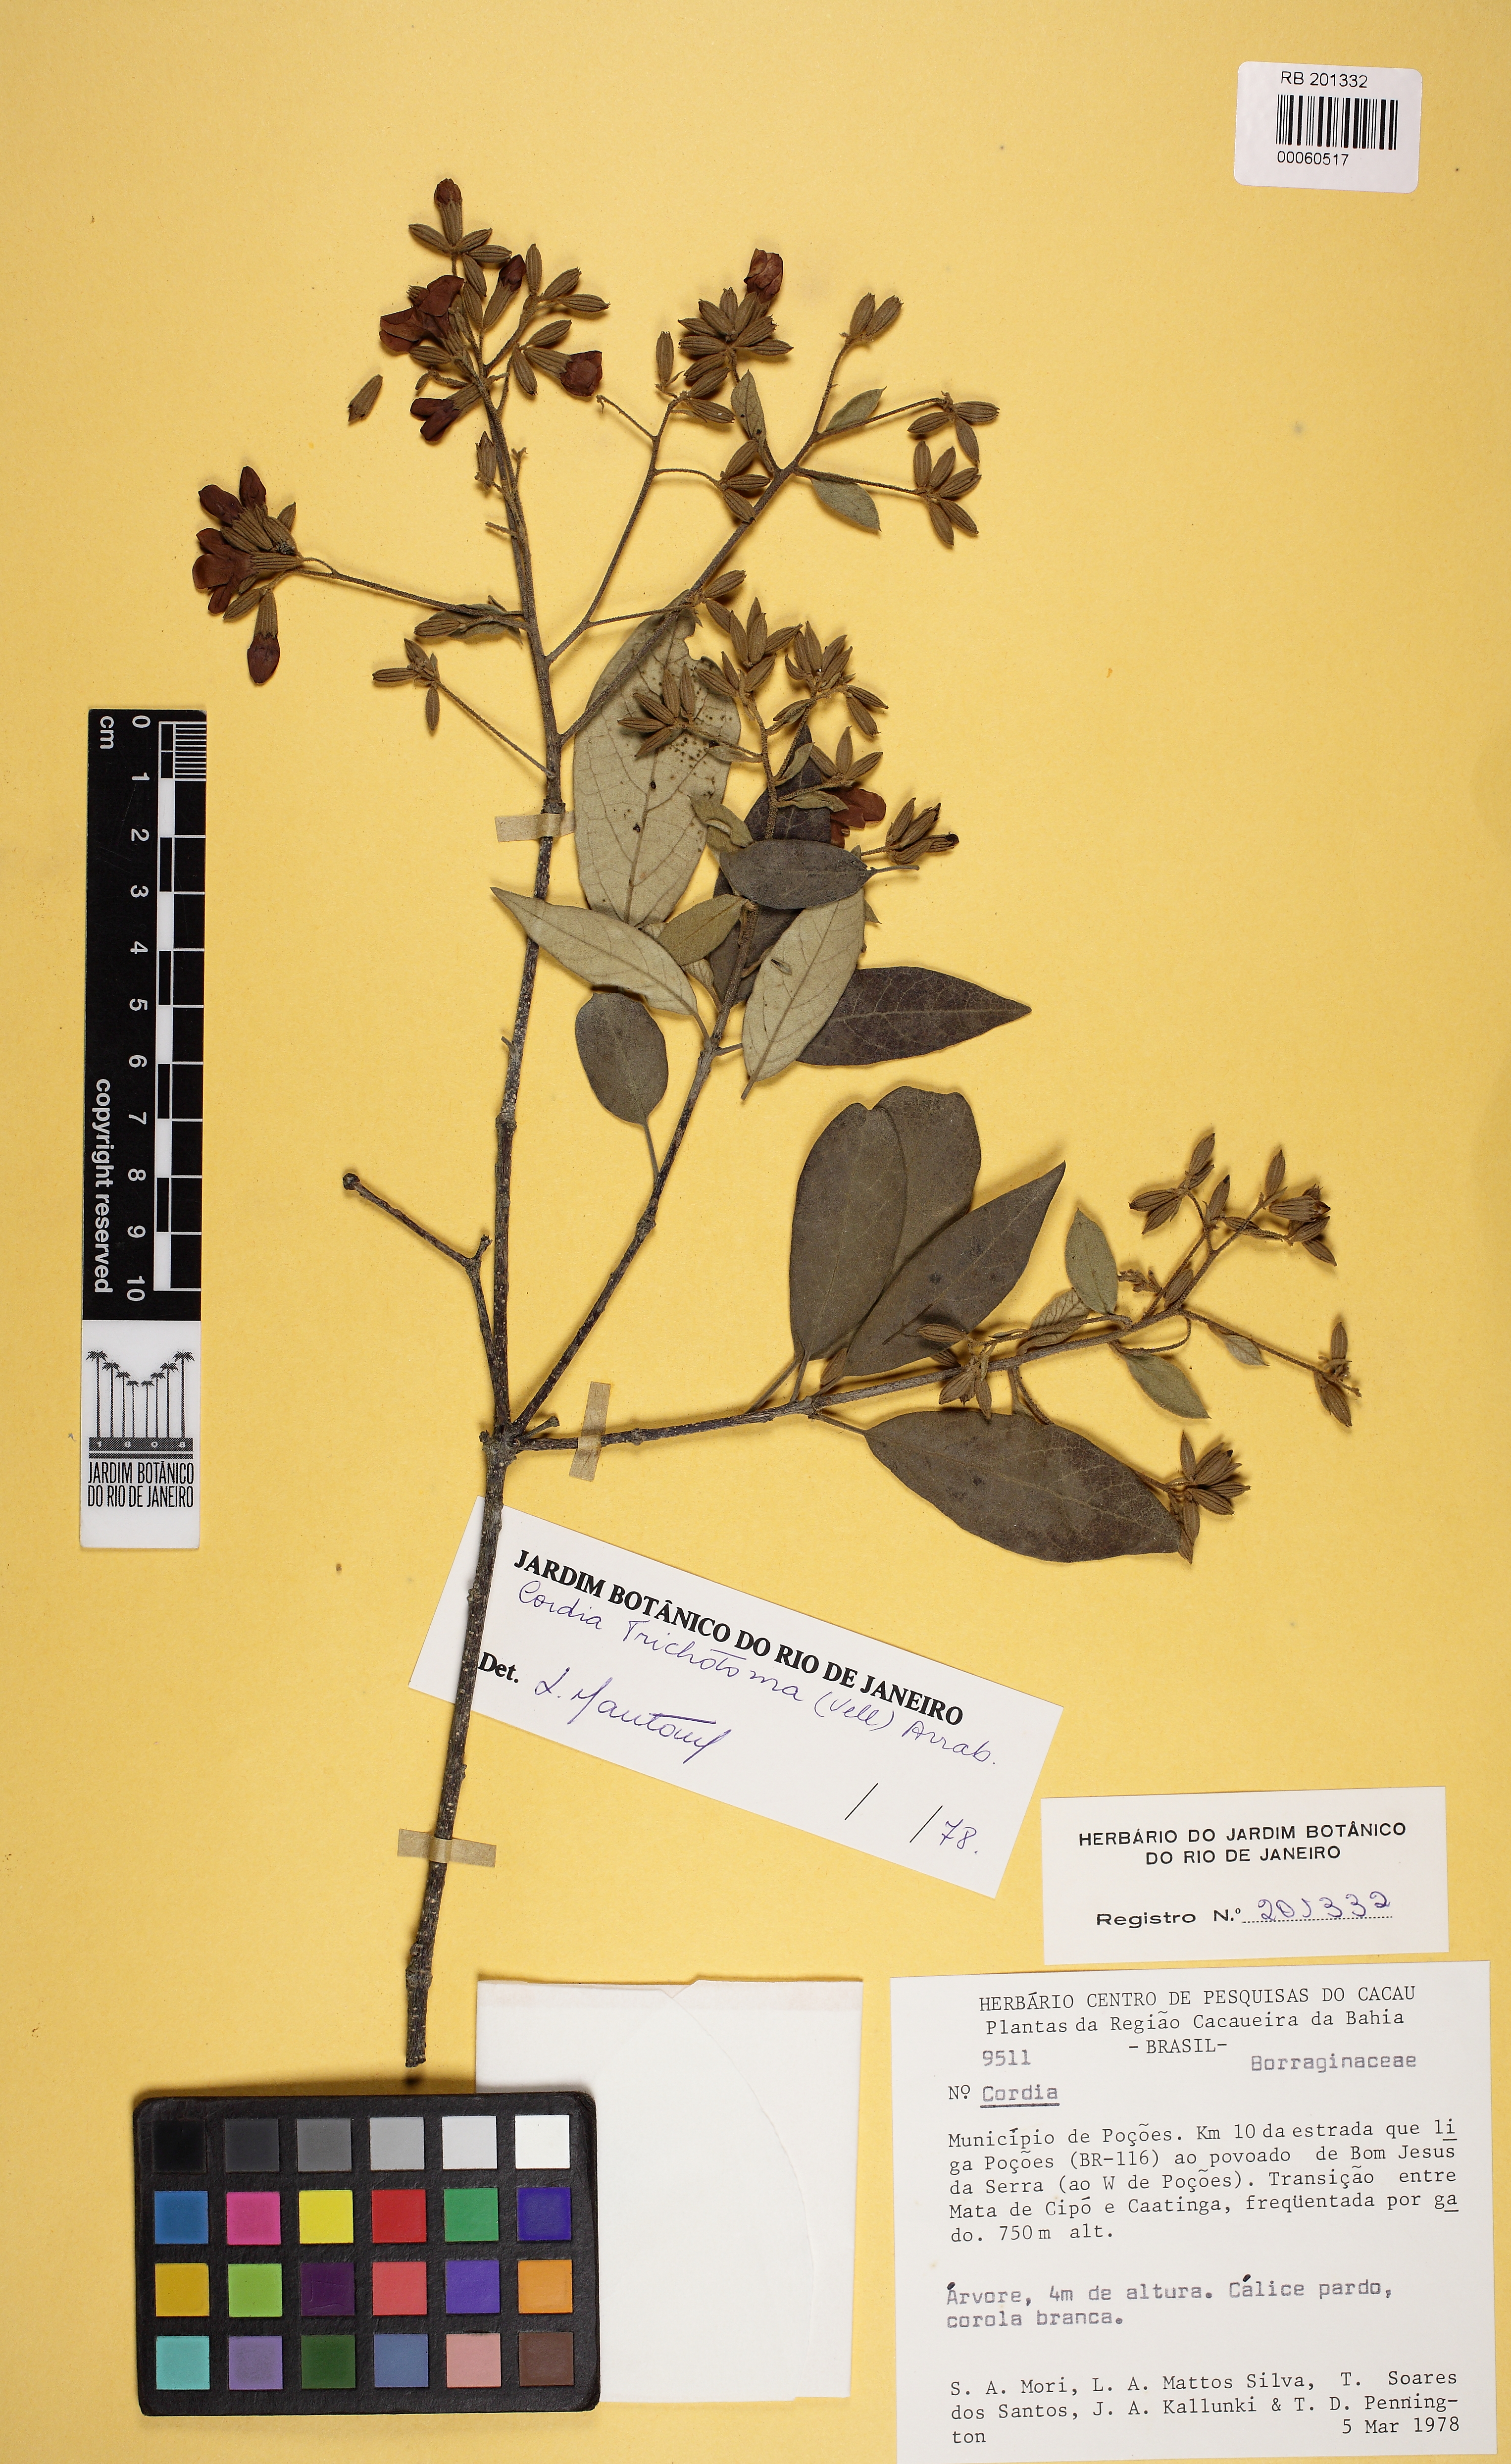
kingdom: Plantae
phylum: Tracheophyta
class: Magnoliopsida
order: Boraginales
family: Cordiaceae
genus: Cordia
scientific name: Cordia trichotoma
